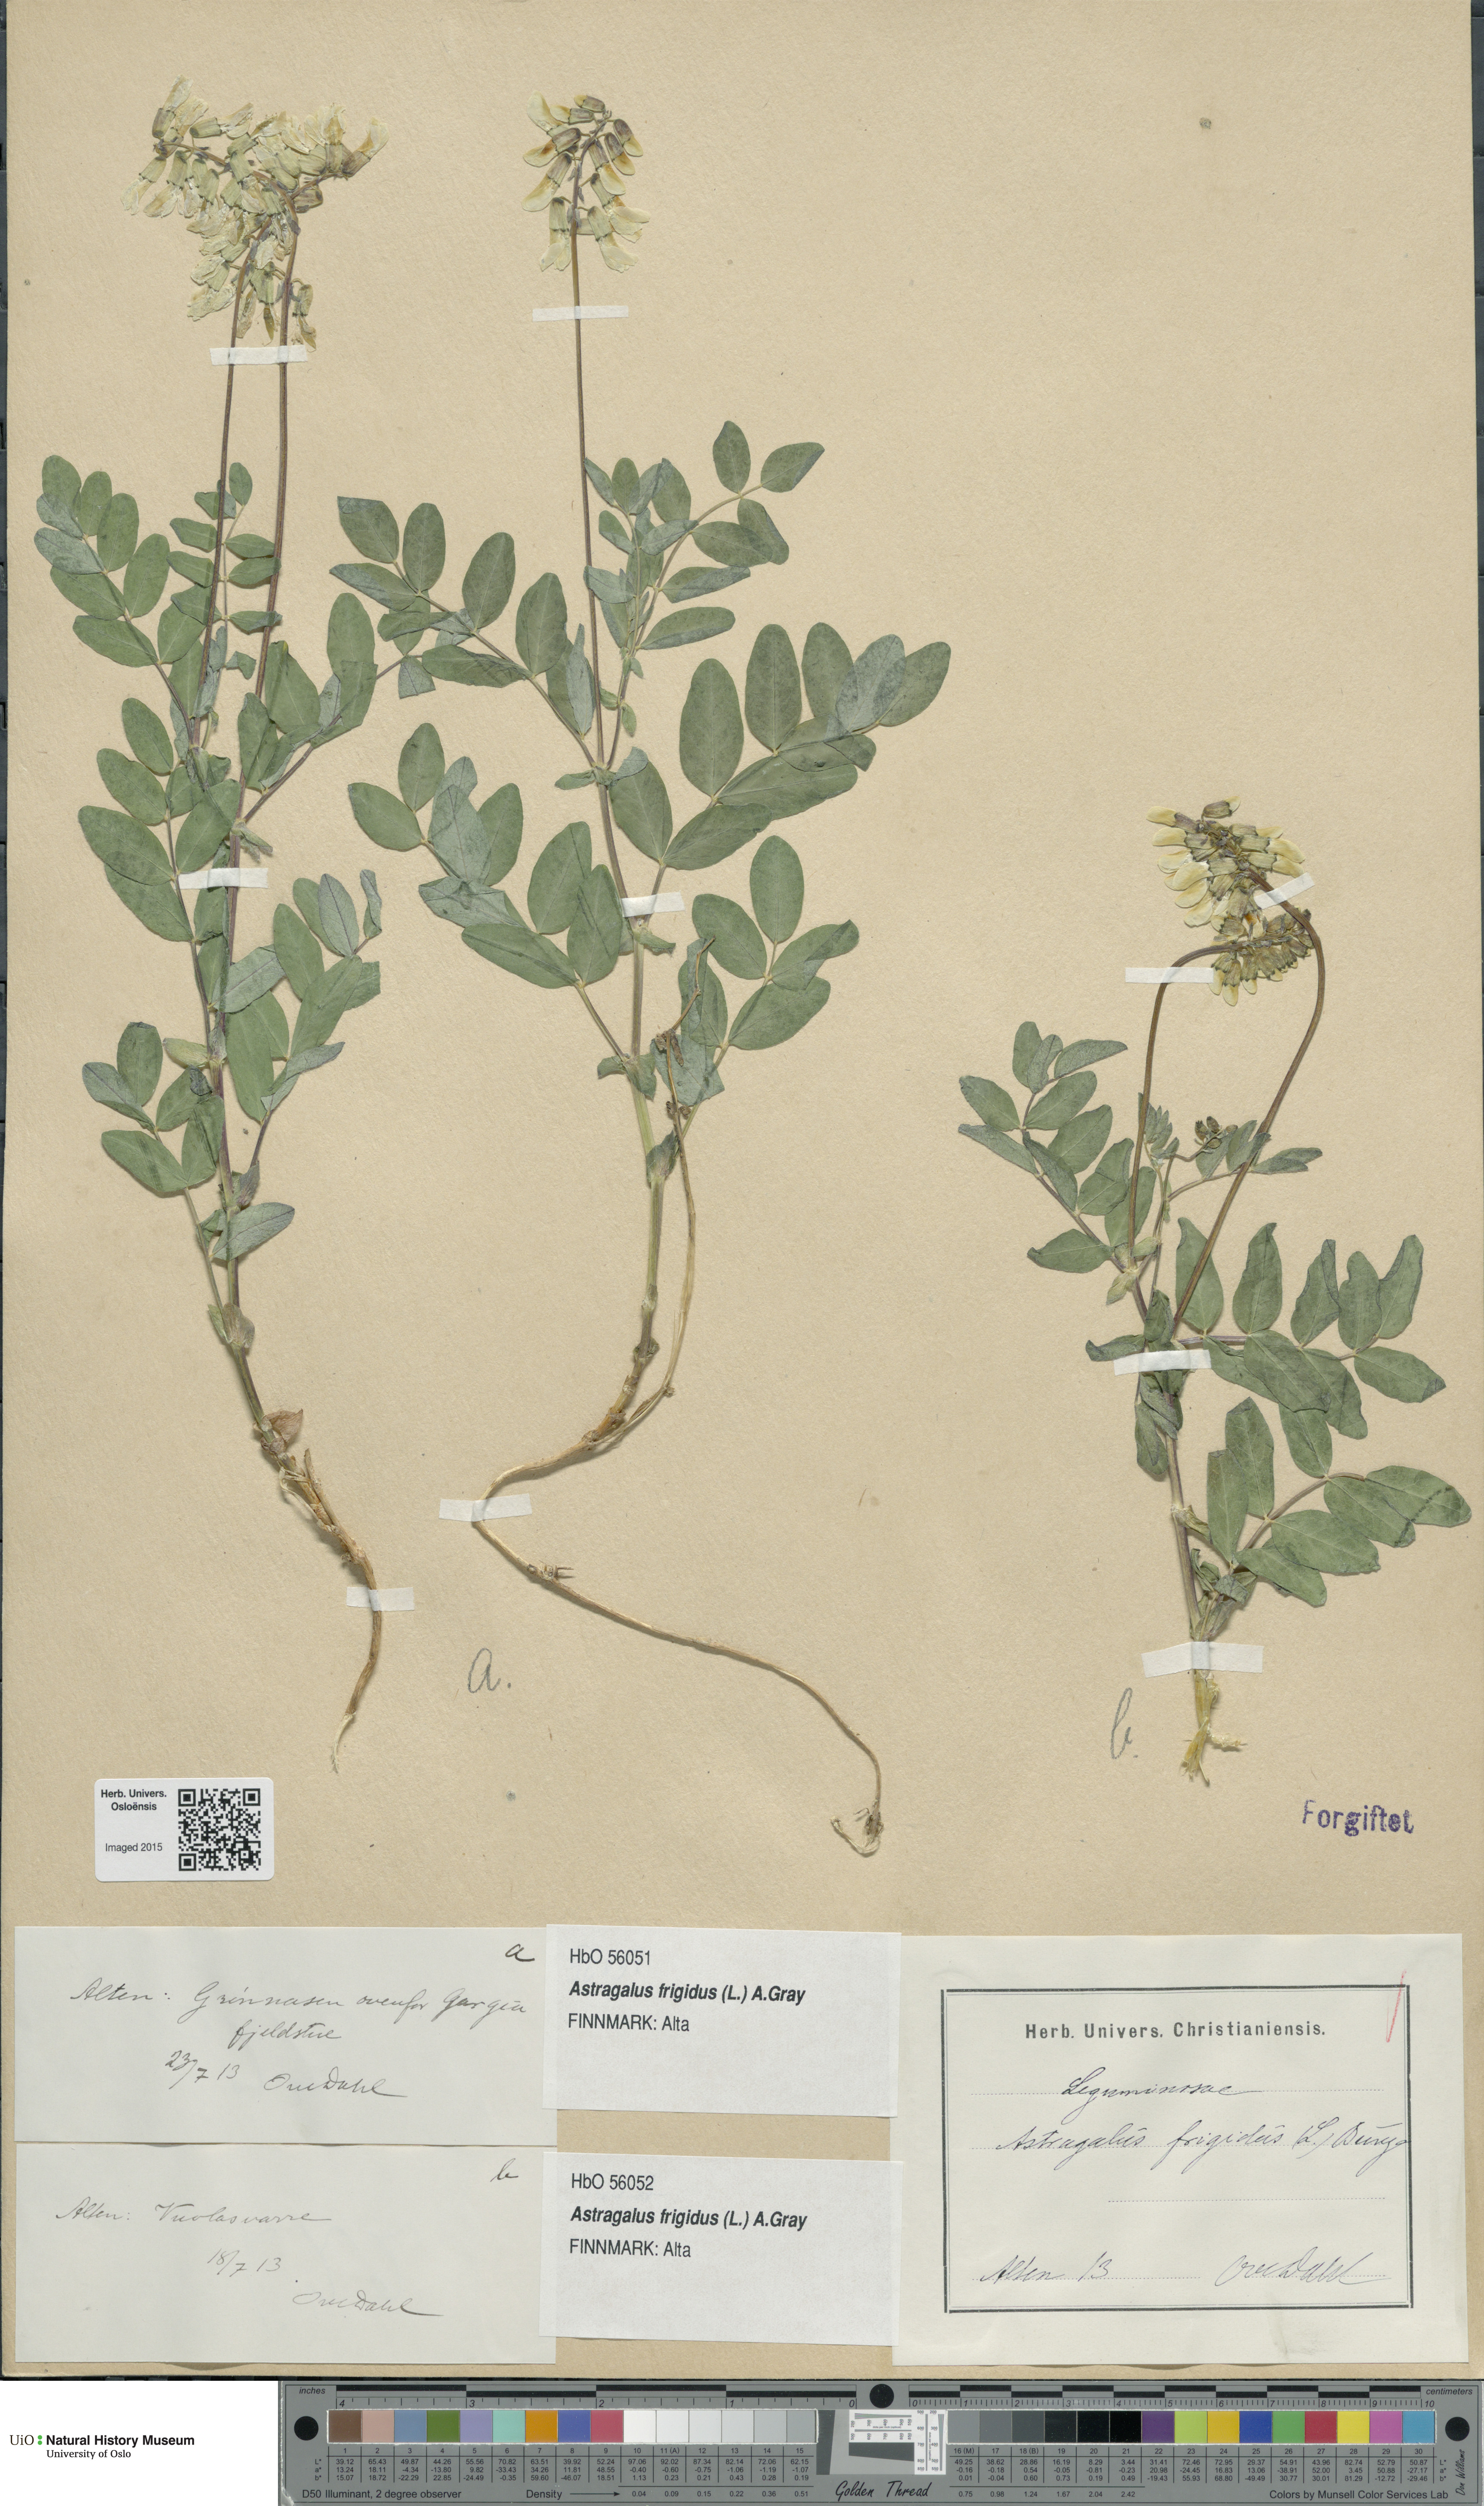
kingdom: Plantae
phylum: Tracheophyta
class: Magnoliopsida
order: Fabales
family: Fabaceae
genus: Astragalus
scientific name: Astragalus frigidus
